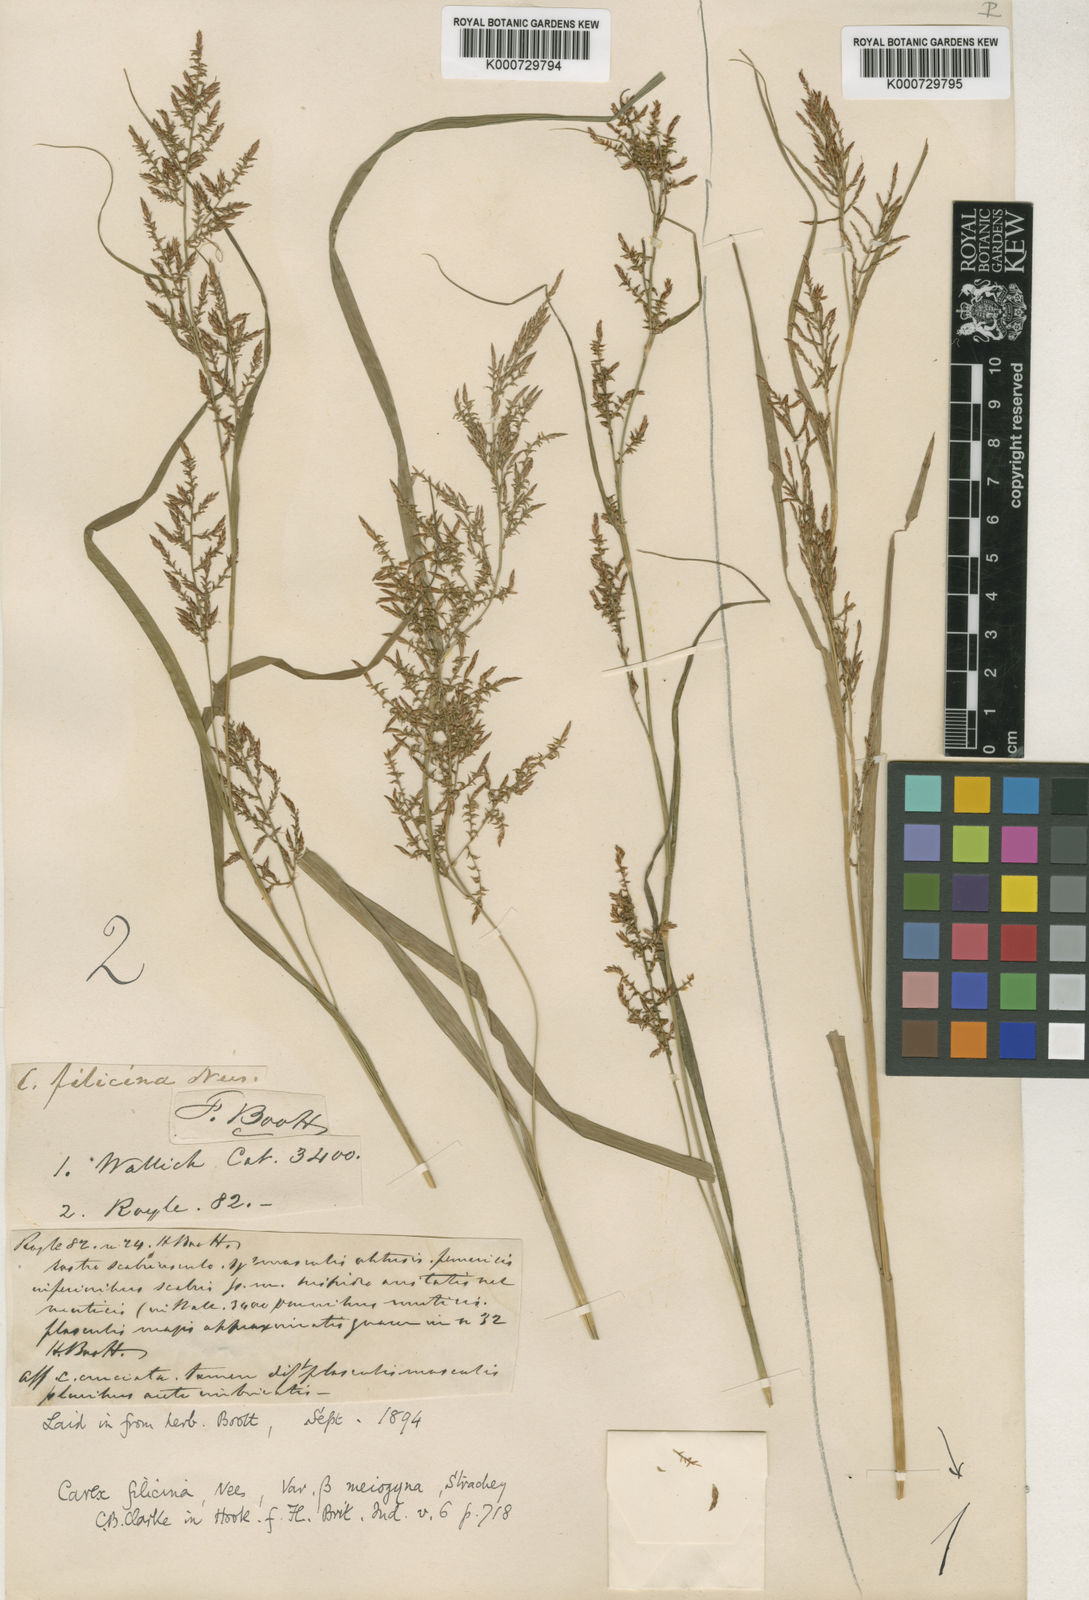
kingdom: Plantae
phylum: Tracheophyta
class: Liliopsida
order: Poales
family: Cyperaceae
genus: Carex
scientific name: Carex filicina
